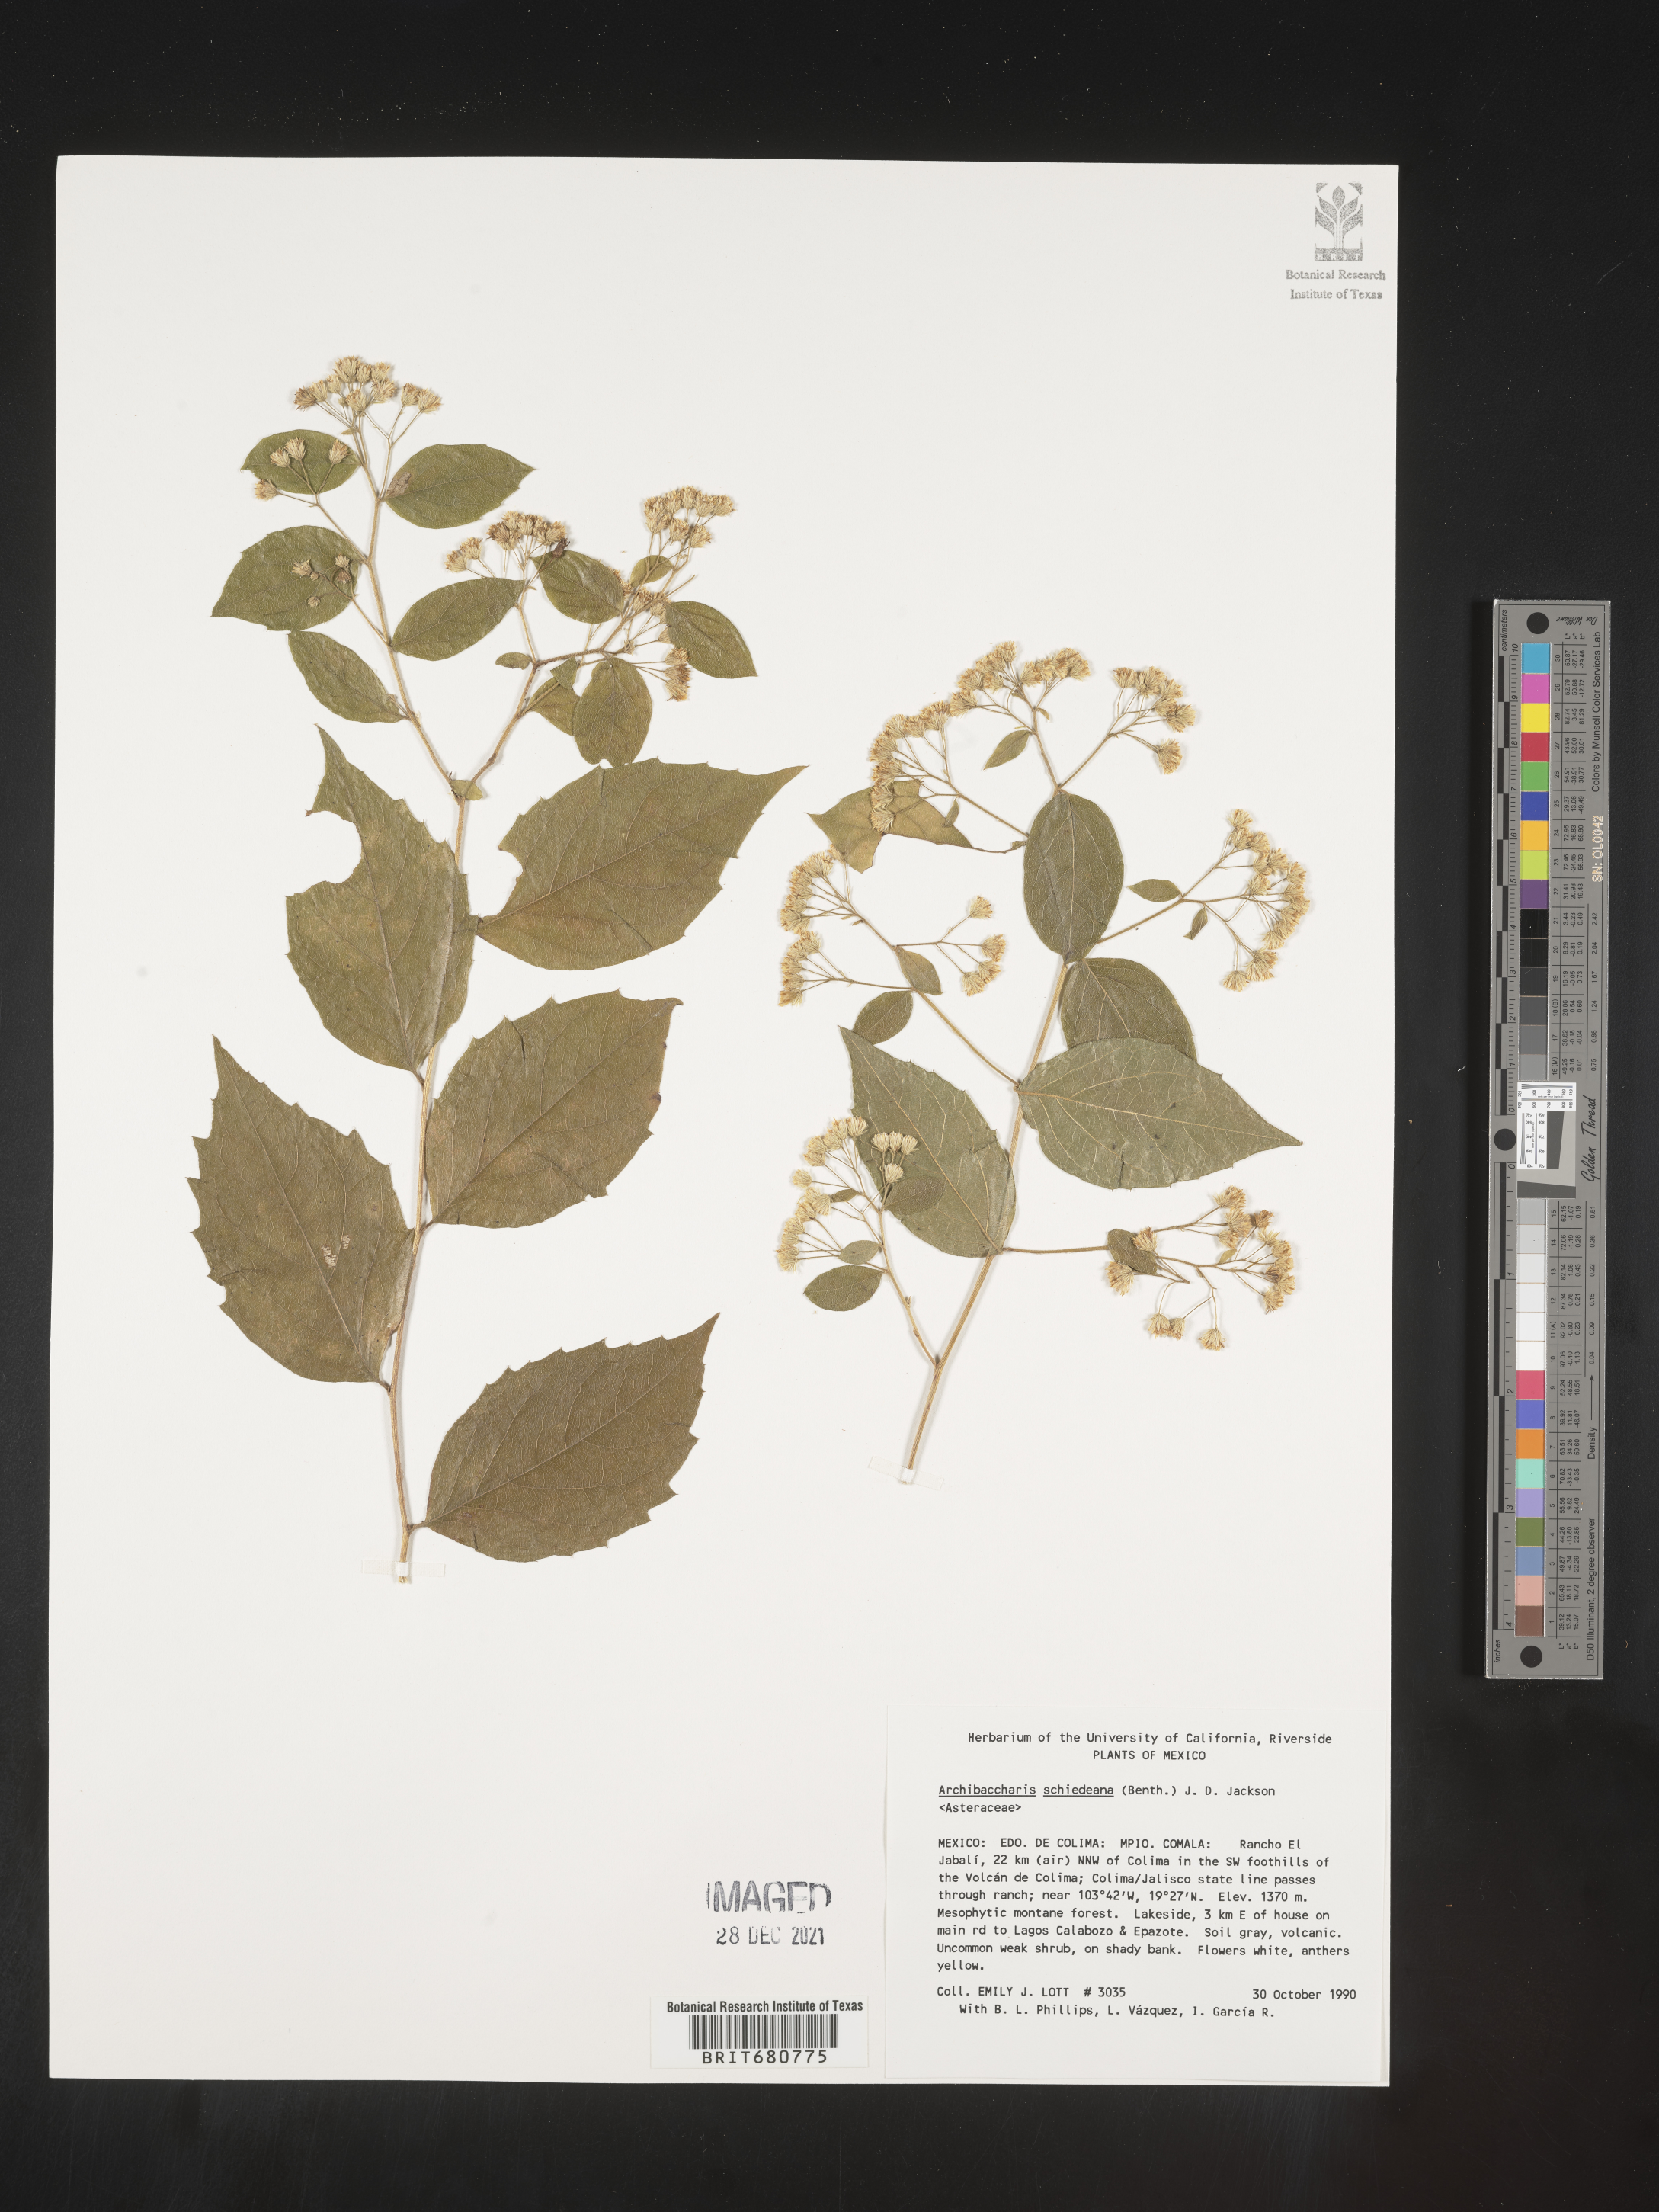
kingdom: Plantae
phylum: Tracheophyta
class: Magnoliopsida
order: Asterales
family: Asteraceae
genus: Archibaccharis
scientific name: Archibaccharis
